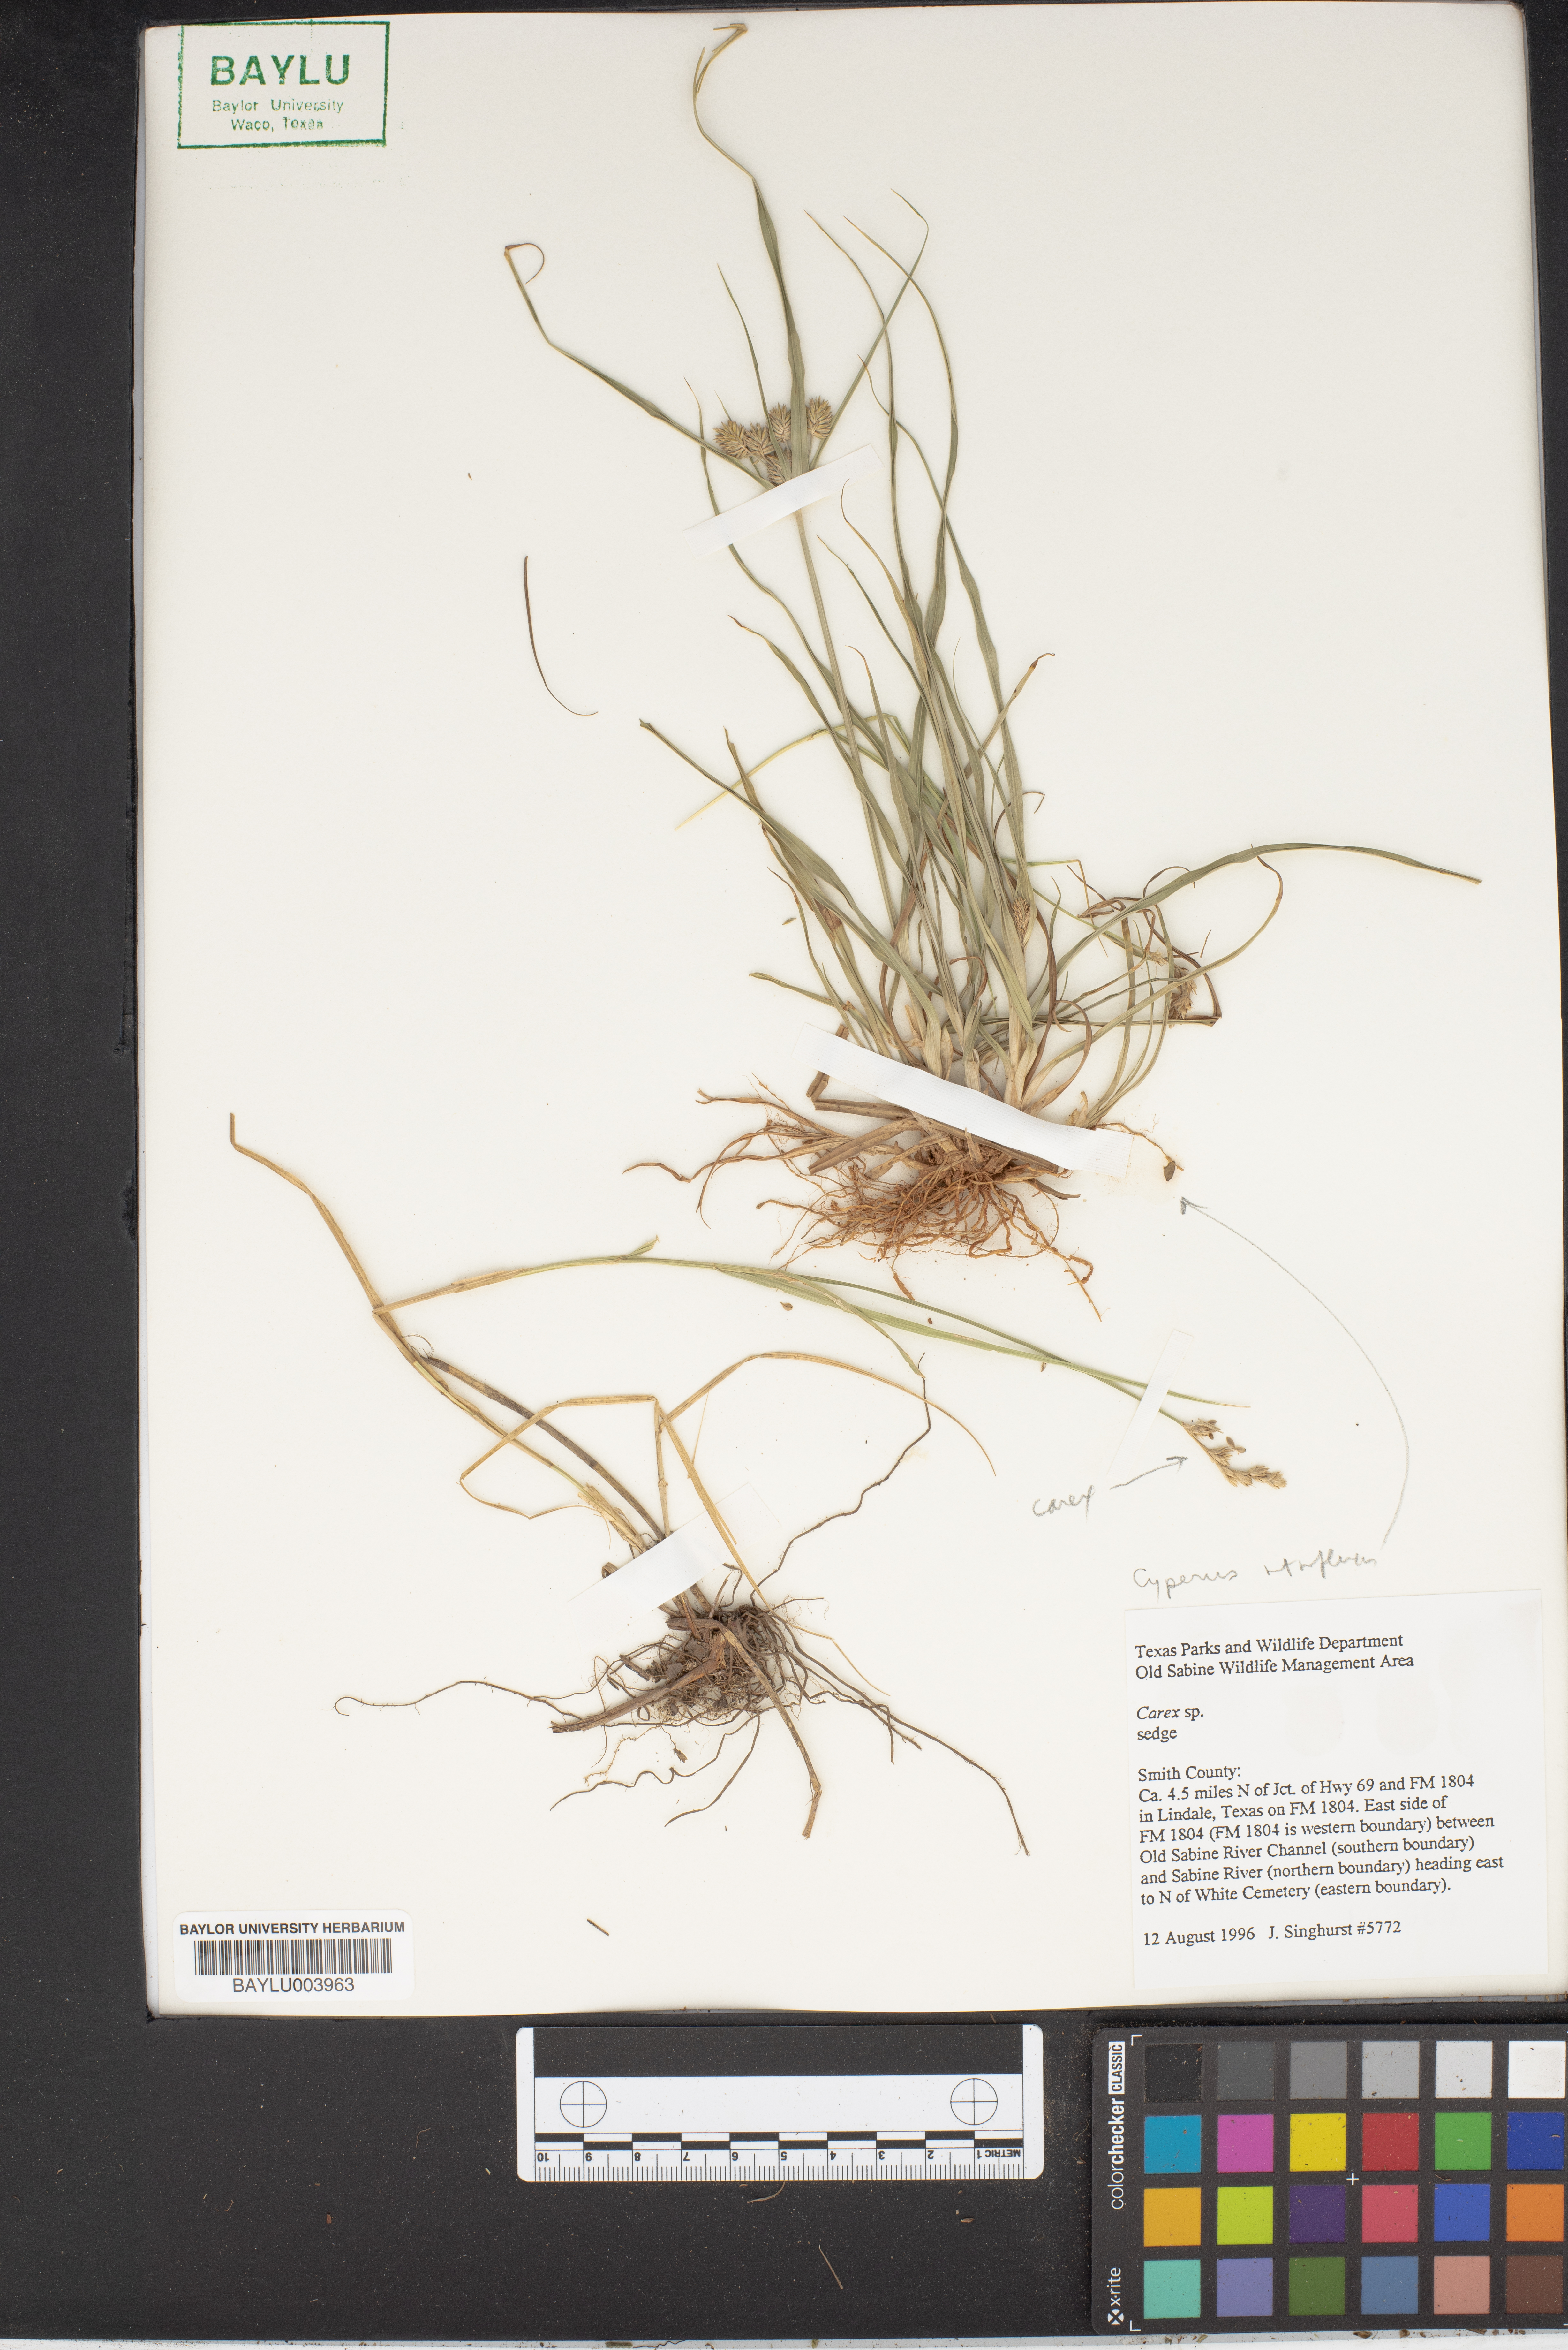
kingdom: Plantae
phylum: Tracheophyta
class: Liliopsida
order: Poales
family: Cyperaceae
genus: Carex
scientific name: Carex texensis
